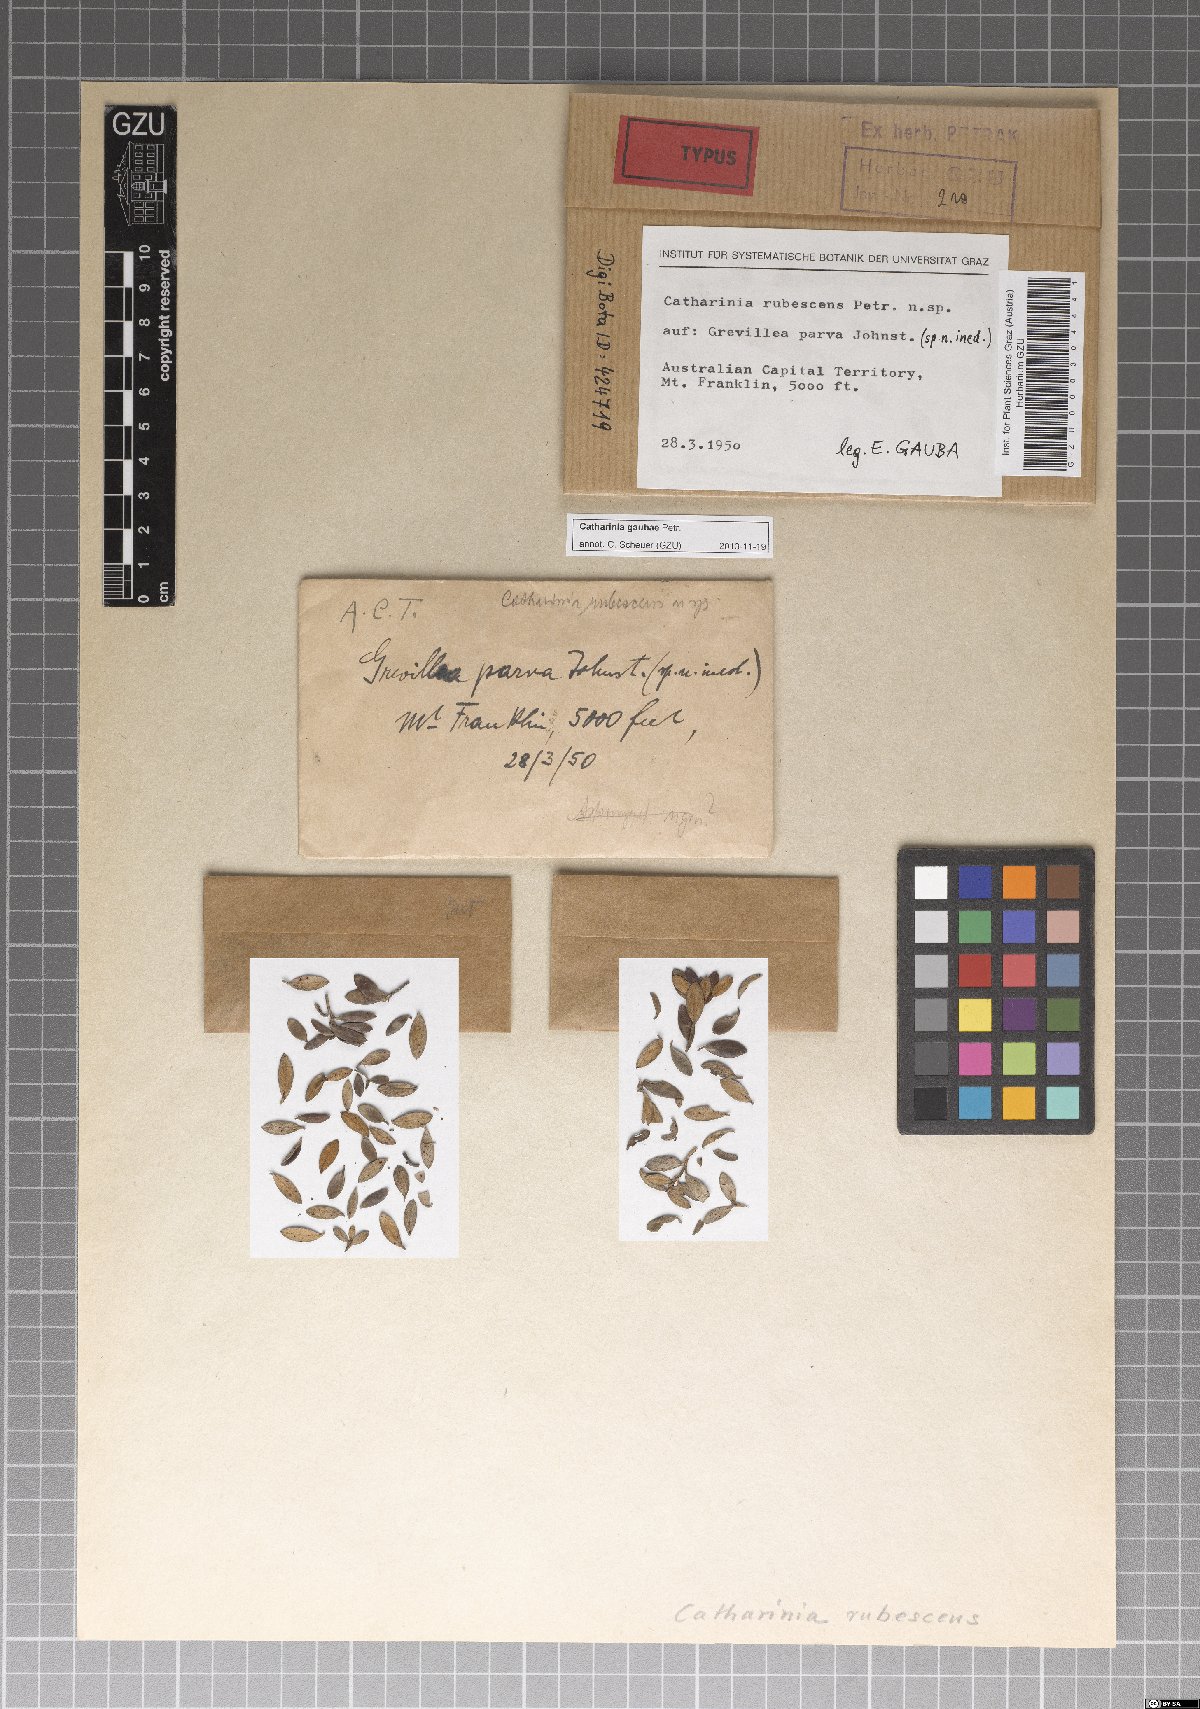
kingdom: Fungi
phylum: Ascomycota
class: Lecanoromycetes
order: Ostropales
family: Thelenellaceae
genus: Catharinia
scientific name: Catharinia
